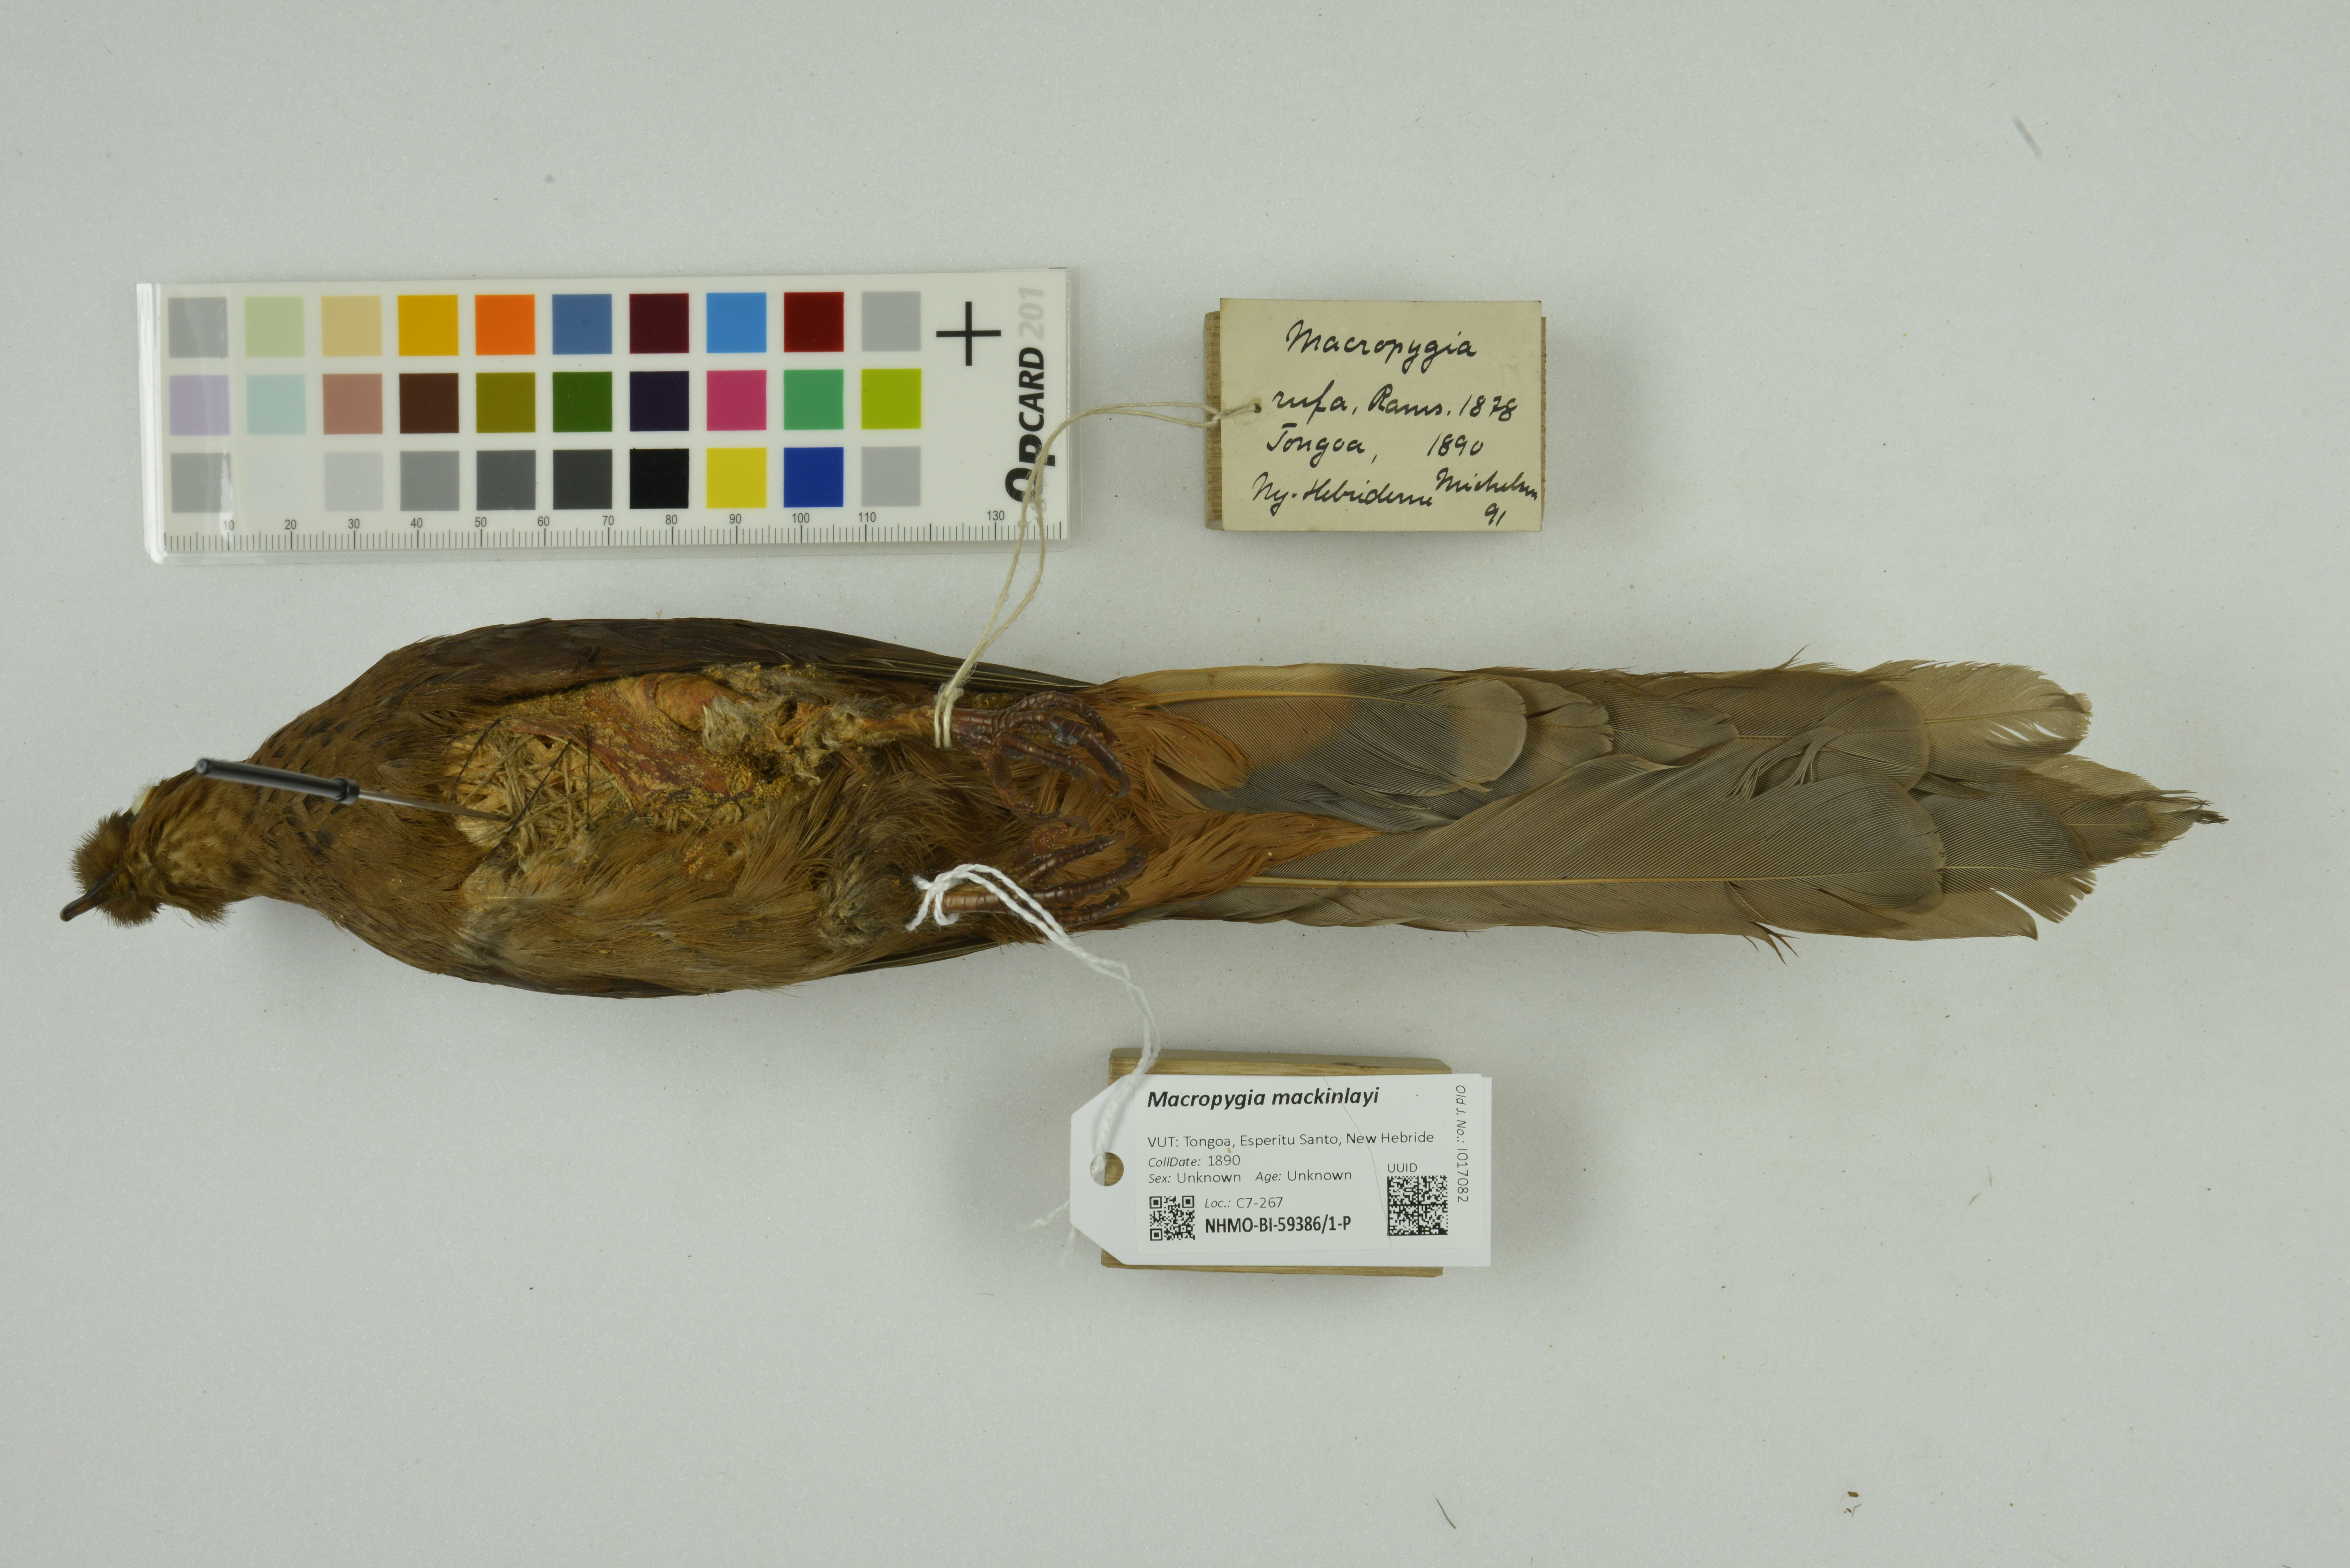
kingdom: Animalia
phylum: Chordata
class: Aves
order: Columbiformes
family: Columbidae
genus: Macropygia
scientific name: Macropygia mackinlayi
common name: Mackinlay's cuckoo-dove
